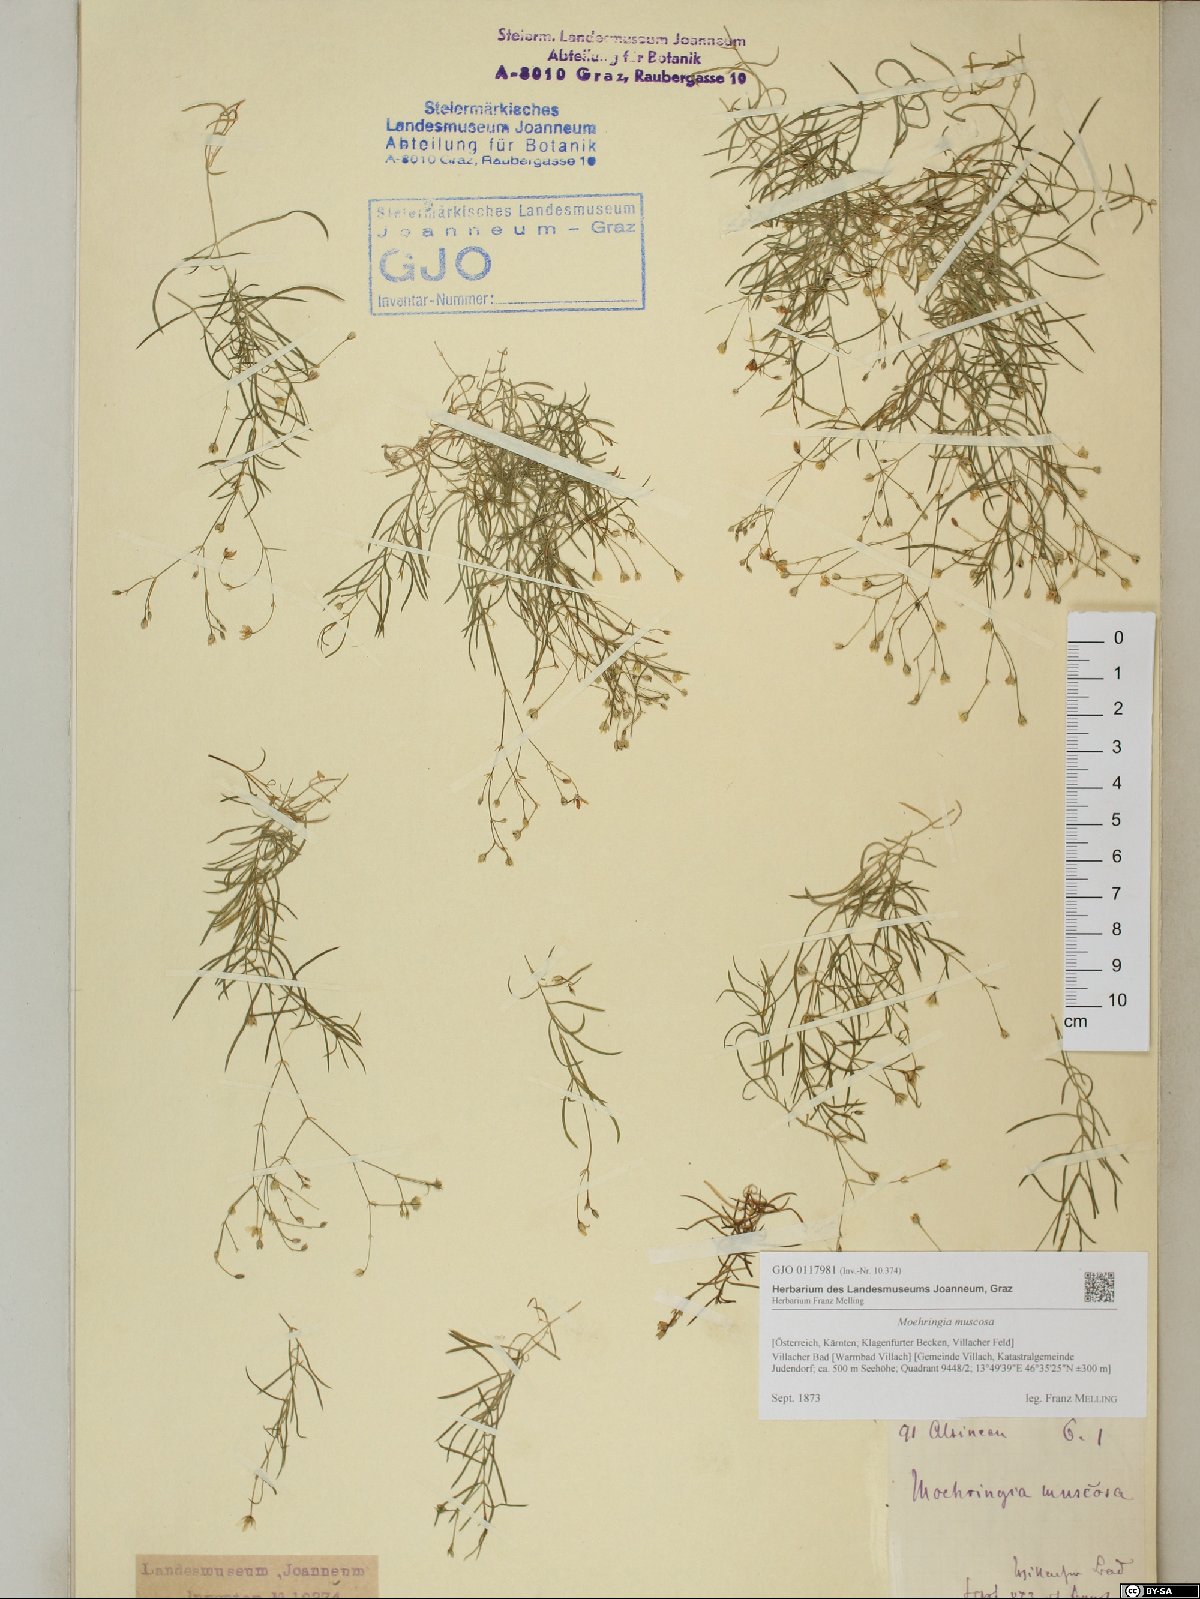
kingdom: Plantae
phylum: Tracheophyta
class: Magnoliopsida
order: Caryophyllales
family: Caryophyllaceae
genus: Moehringia
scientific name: Moehringia muscosa
